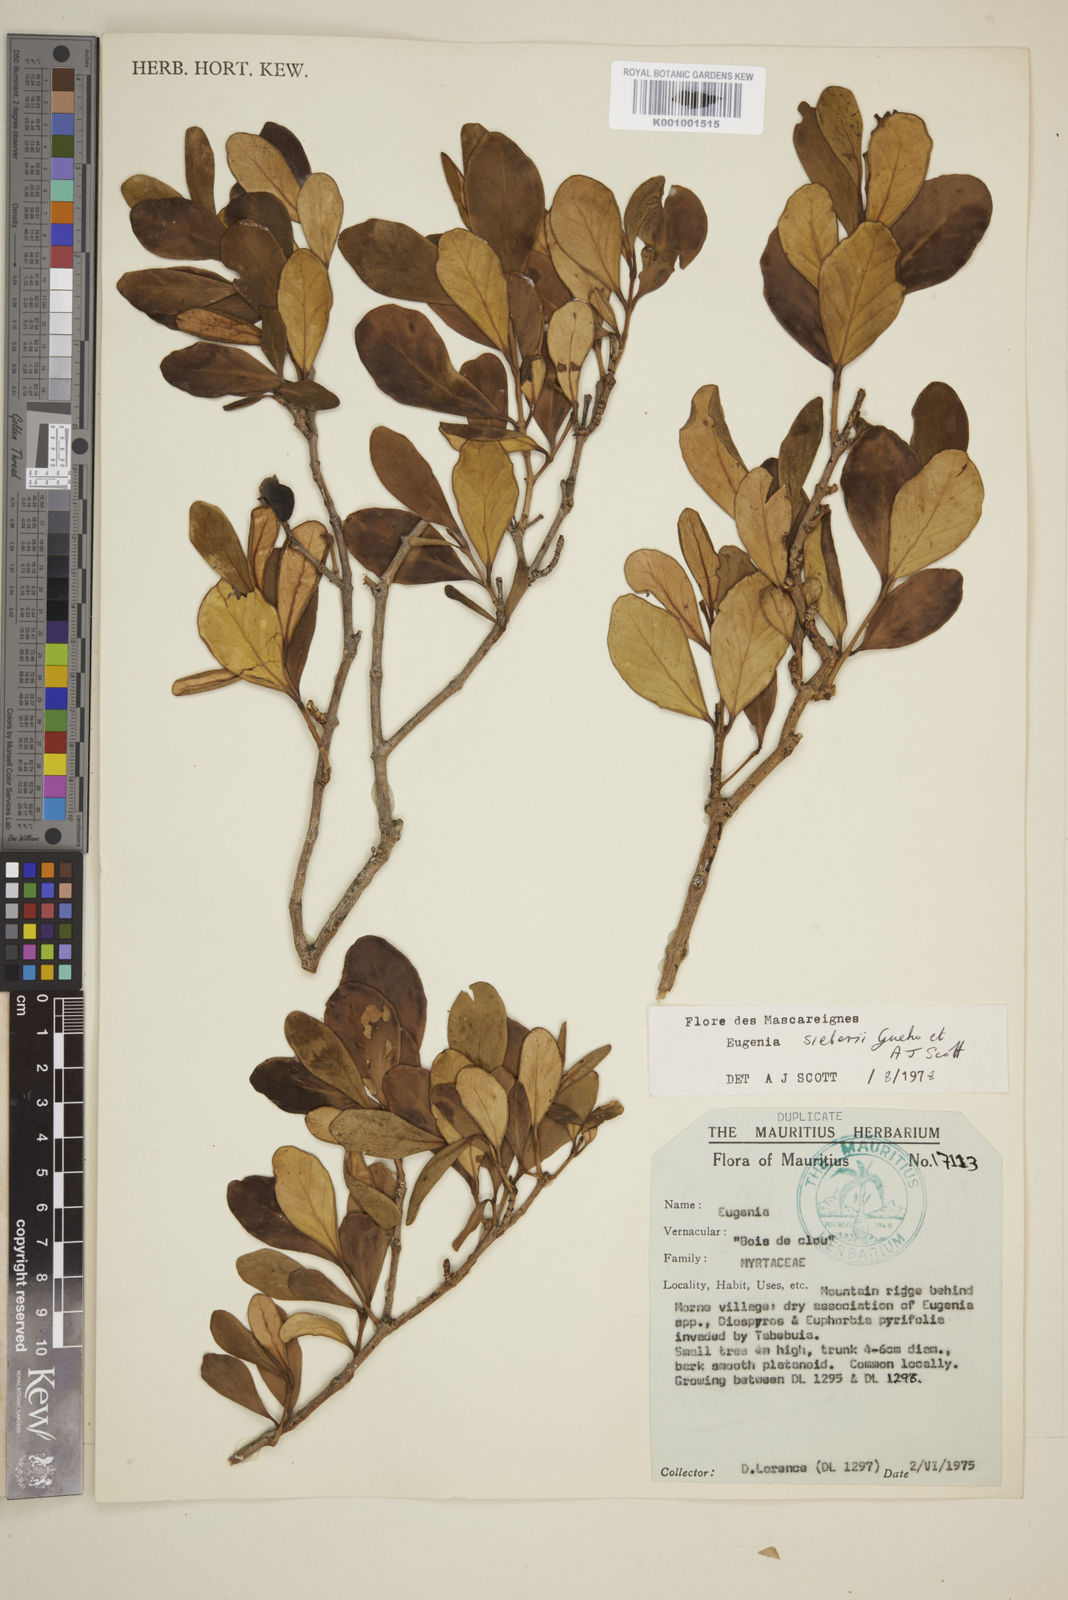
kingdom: Plantae
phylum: Tracheophyta
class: Magnoliopsida
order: Myrtales
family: Myrtaceae
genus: Eugenia
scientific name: Eugenia
